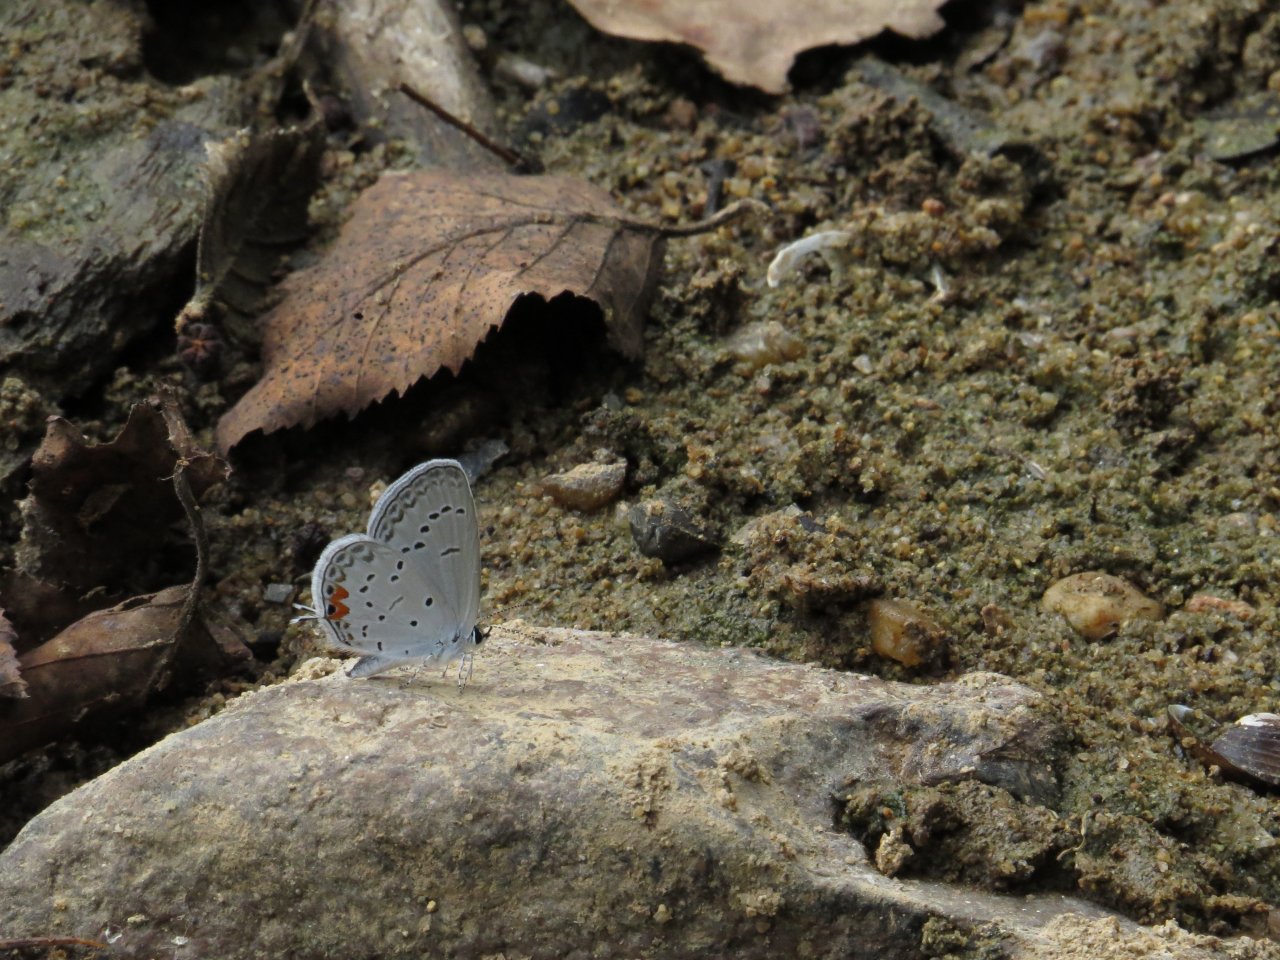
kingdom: Animalia
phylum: Arthropoda
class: Insecta
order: Lepidoptera
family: Lycaenidae
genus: Elkalyce
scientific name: Elkalyce comyntas
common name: Eastern Tailed-Blue
